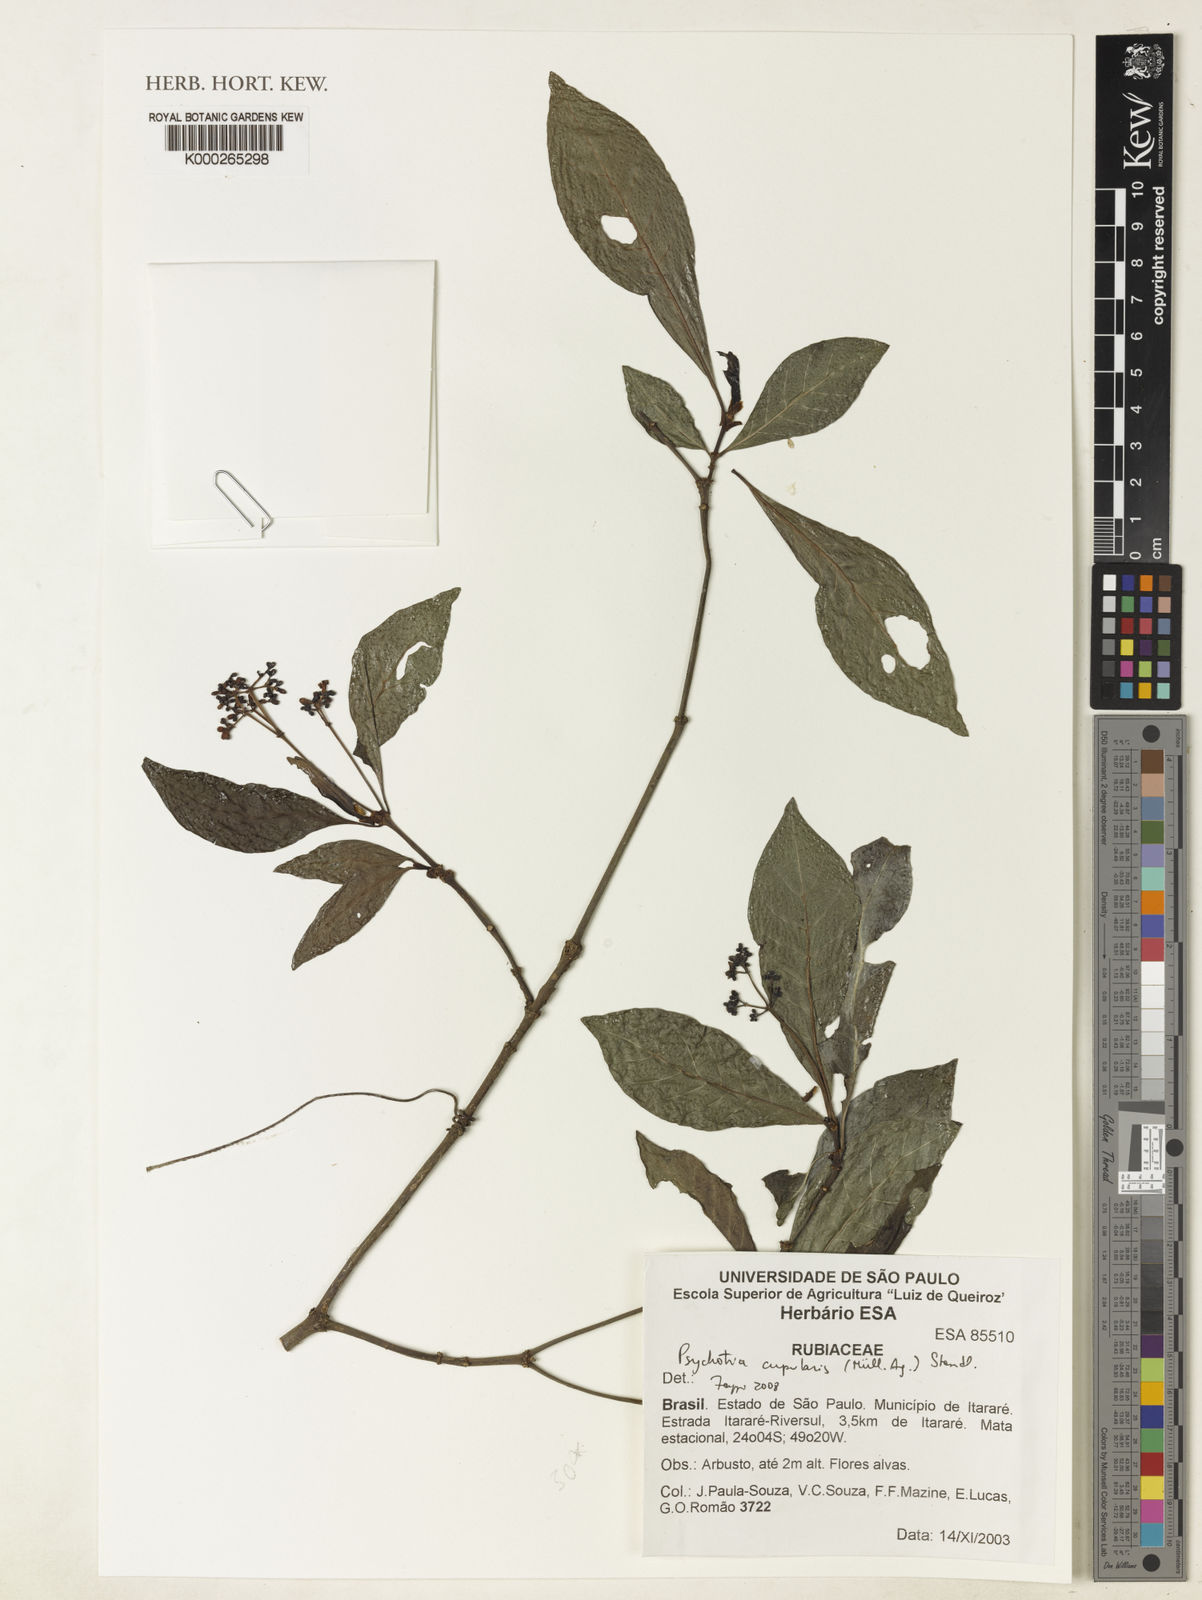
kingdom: Plantae
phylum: Tracheophyta
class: Magnoliopsida
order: Gentianales
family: Rubiaceae
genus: Psychotria
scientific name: Psychotria
